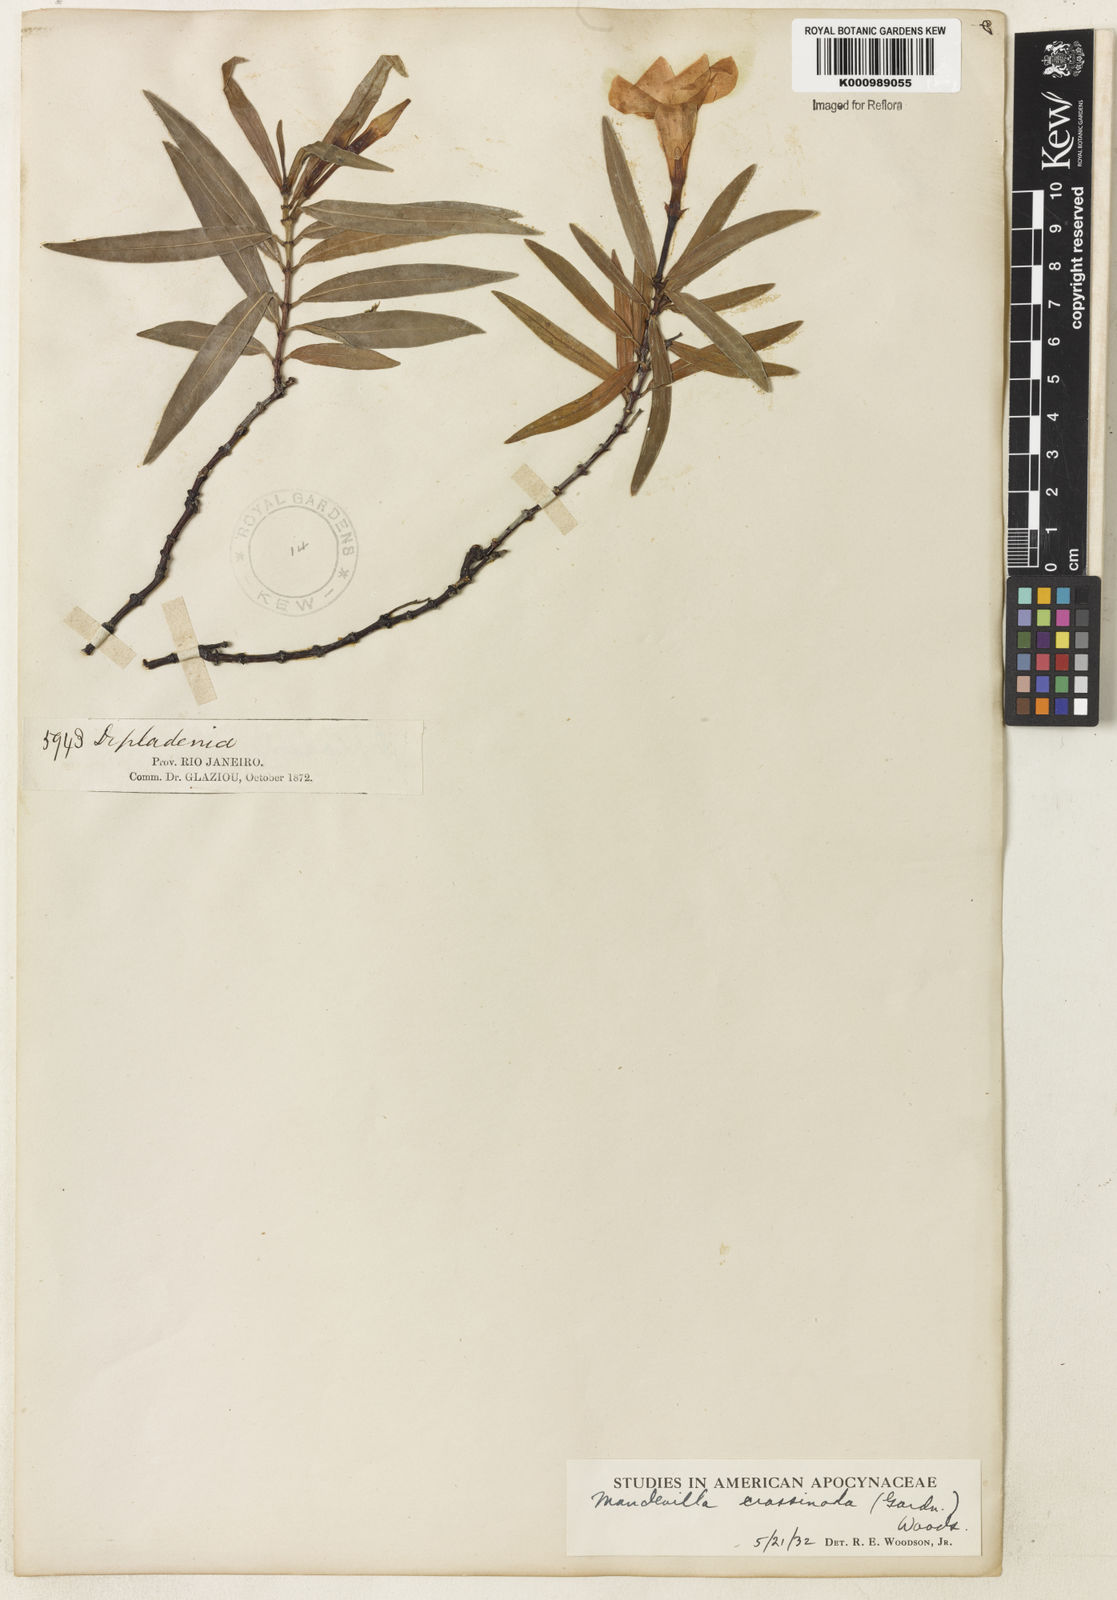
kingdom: Plantae
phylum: Tracheophyta
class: Magnoliopsida
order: Gentianales
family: Apocynaceae
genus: Mandevilla
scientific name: Mandevilla crassinoda
